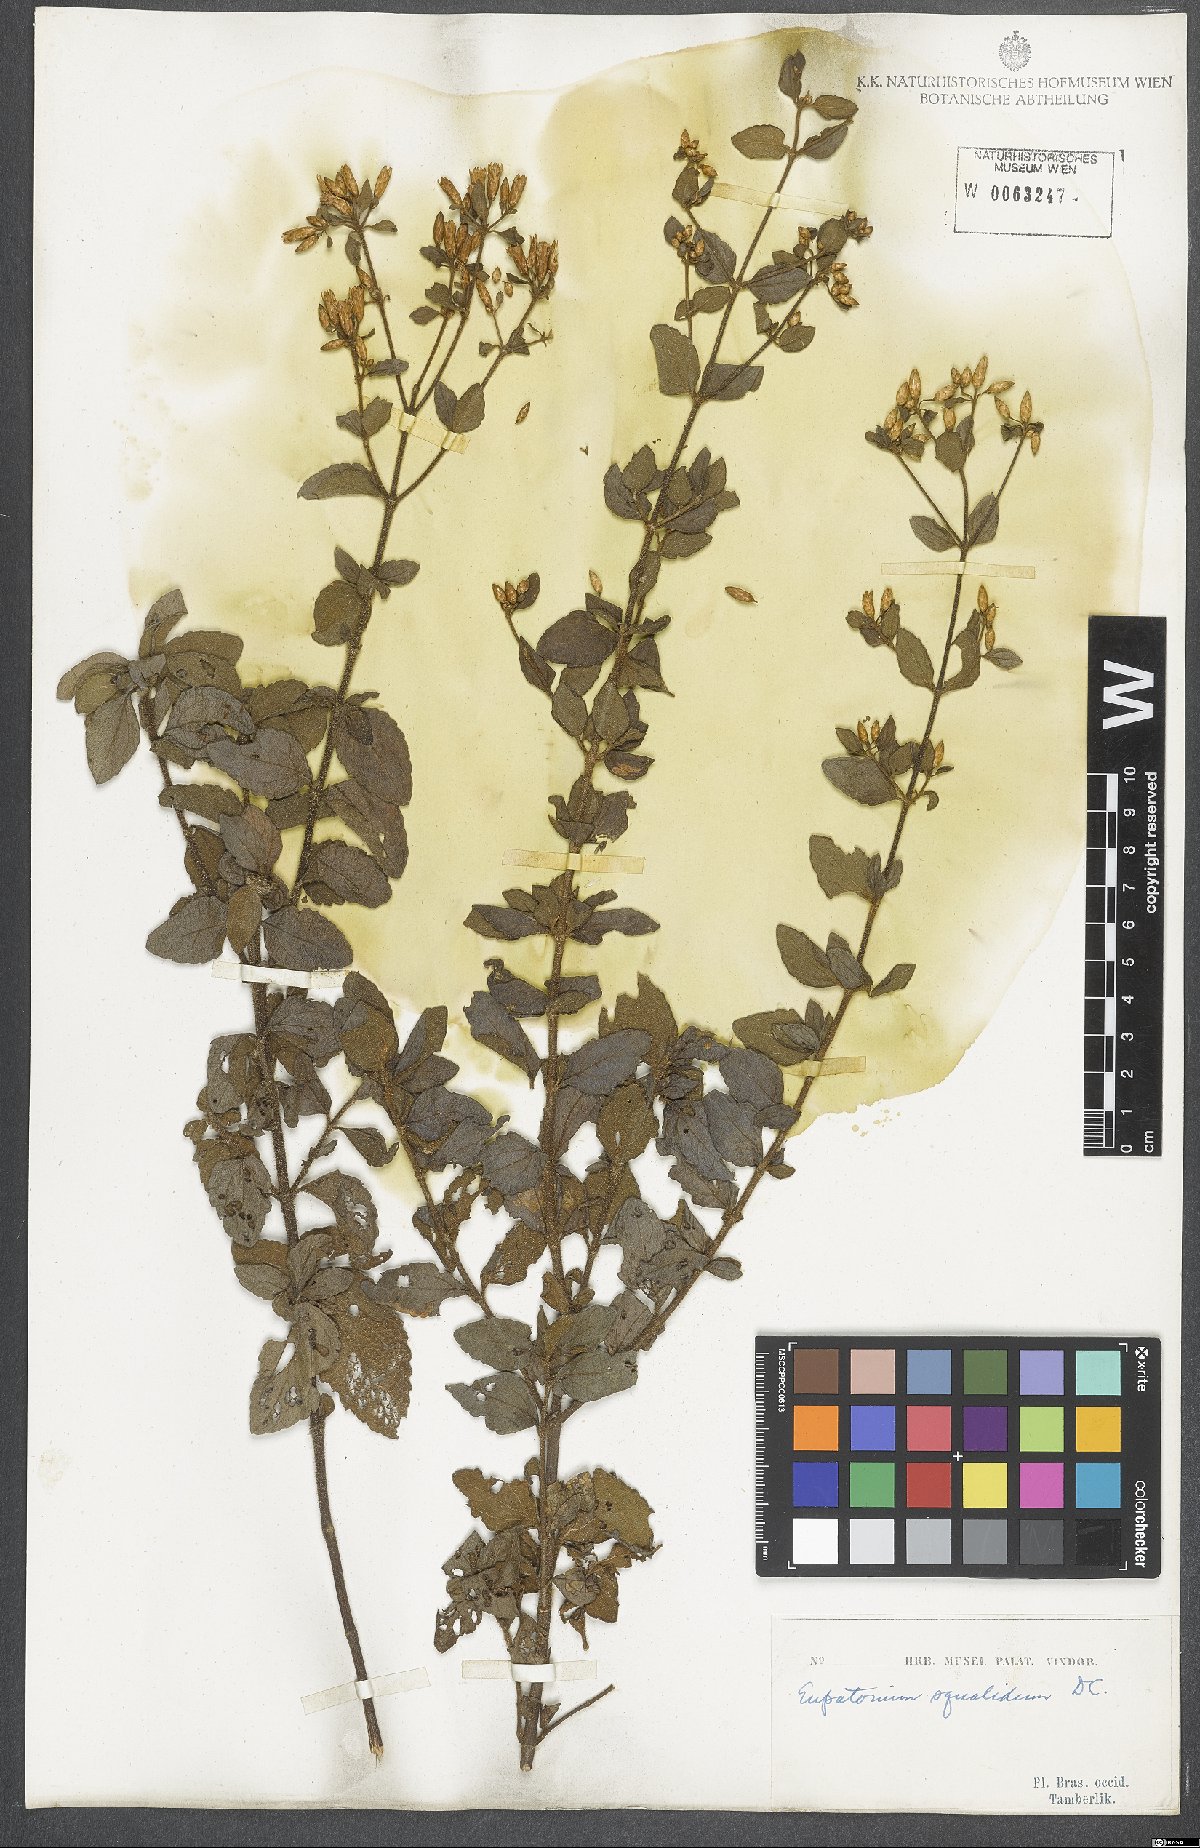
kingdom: Plantae
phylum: Tracheophyta
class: Magnoliopsida
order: Asterales
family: Asteraceae
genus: Chromolaena
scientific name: Chromolaena squalida
